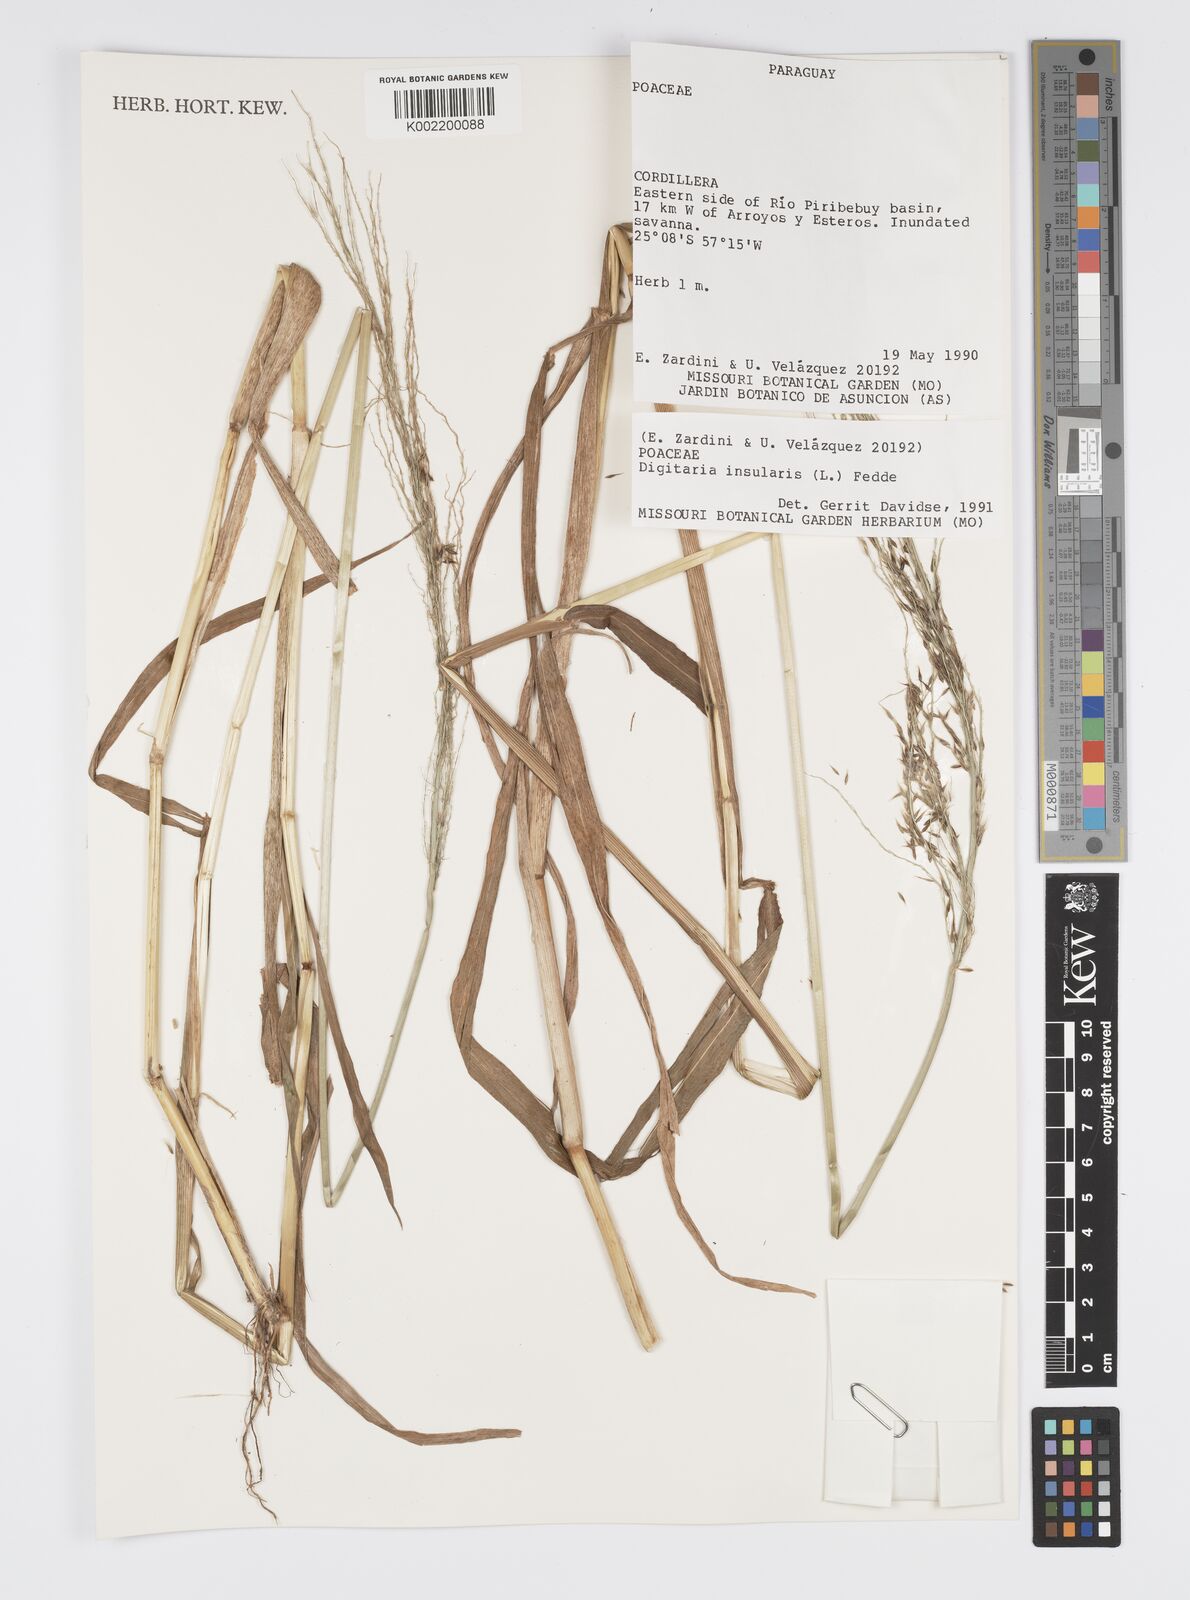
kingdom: Plantae
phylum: Tracheophyta
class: Liliopsida
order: Poales
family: Poaceae
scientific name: Poaceae
